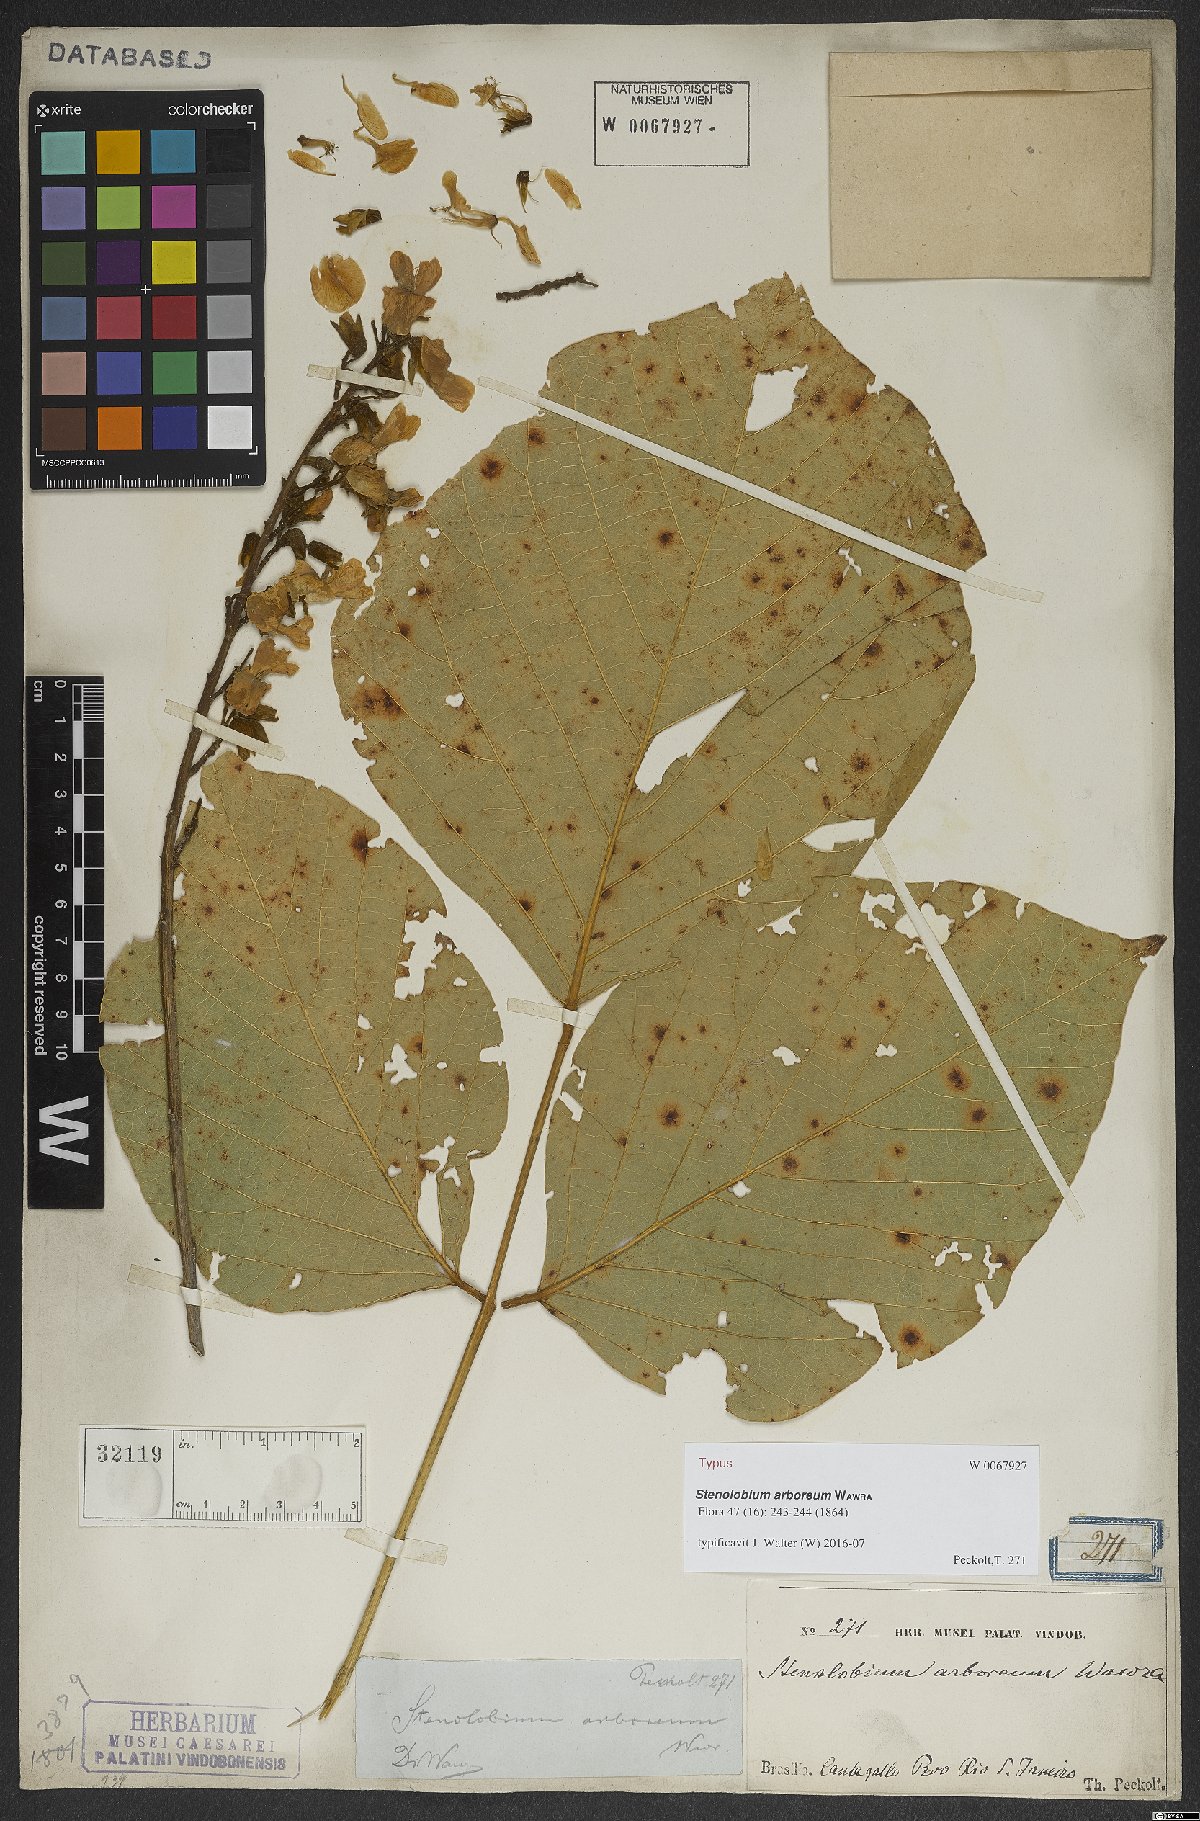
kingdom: Plantae
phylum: Tracheophyta
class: Magnoliopsida
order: Fabales
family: Fabaceae
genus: Calopogonium
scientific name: Calopogonium Stenolobium arboreum
